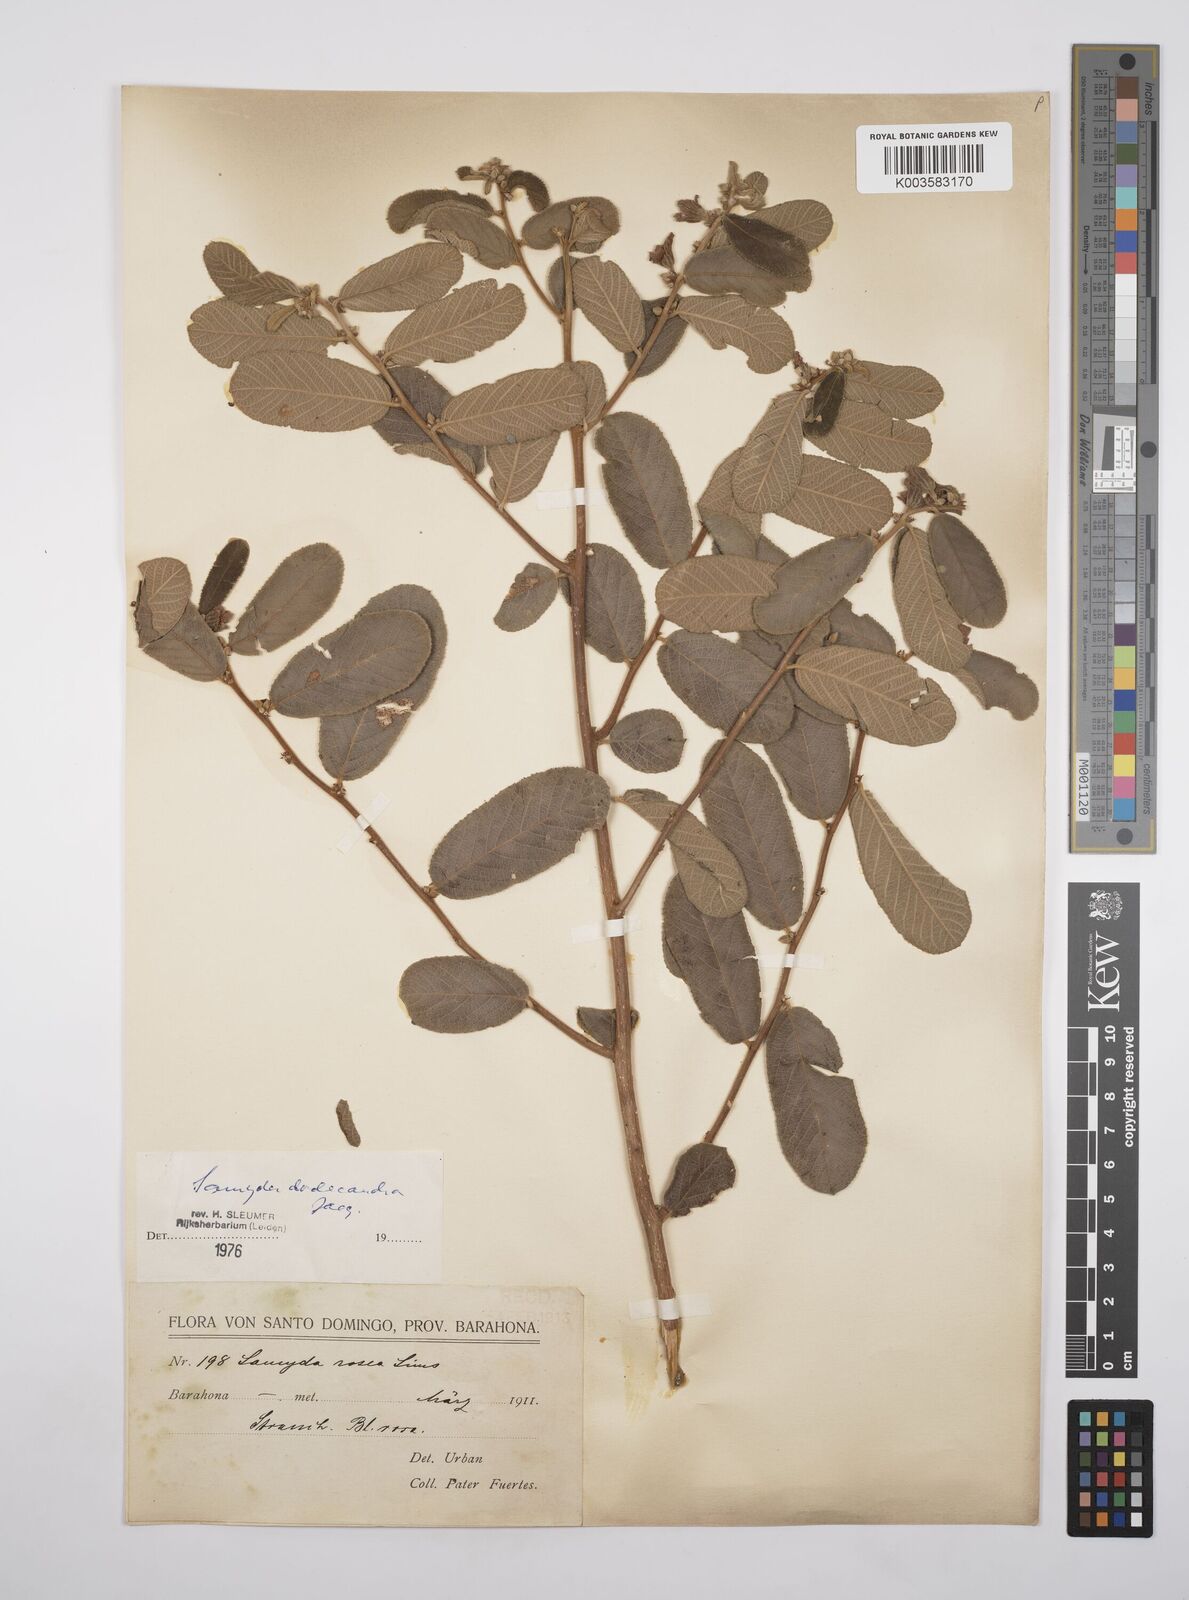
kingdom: Plantae
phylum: Tracheophyta
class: Magnoliopsida
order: Malpighiales
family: Salicaceae
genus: Casearia
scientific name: Casearia dodecandra
